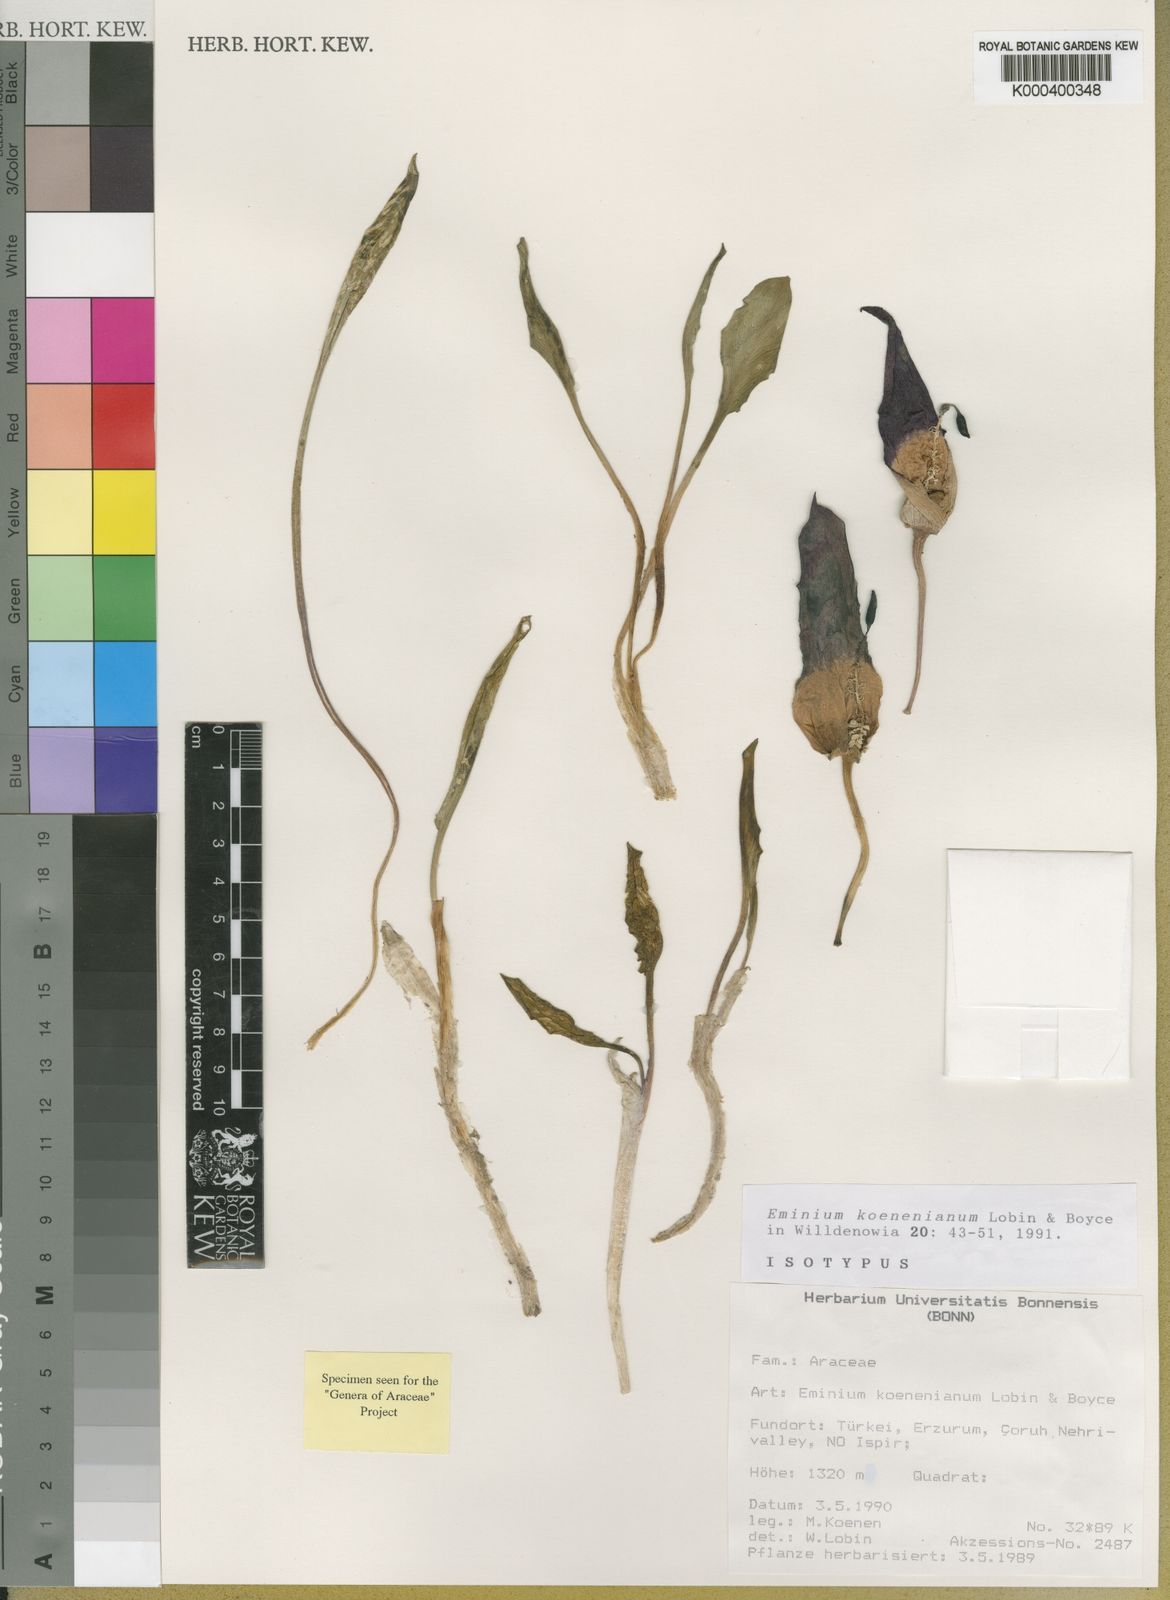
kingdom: Plantae
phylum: Tracheophyta
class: Liliopsida
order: Alismatales
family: Araceae
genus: Eminium
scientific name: Eminium koenenianum
